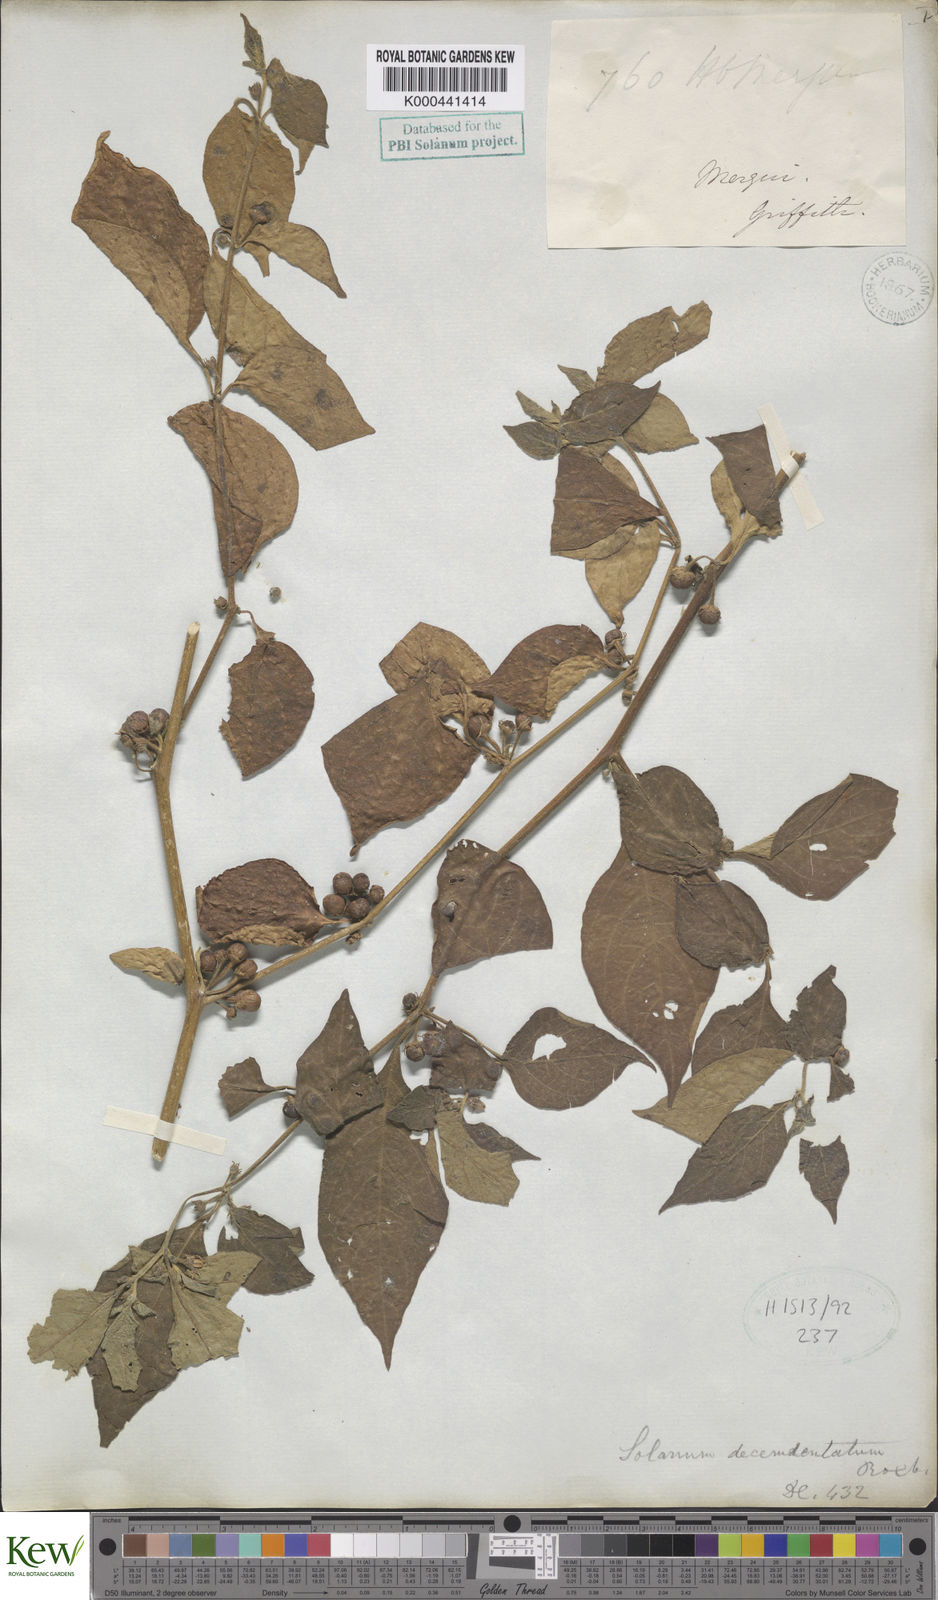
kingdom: Plantae
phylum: Tracheophyta
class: Magnoliopsida
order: Solanales
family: Solanaceae
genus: Lycianthes
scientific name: Lycianthes biflora
